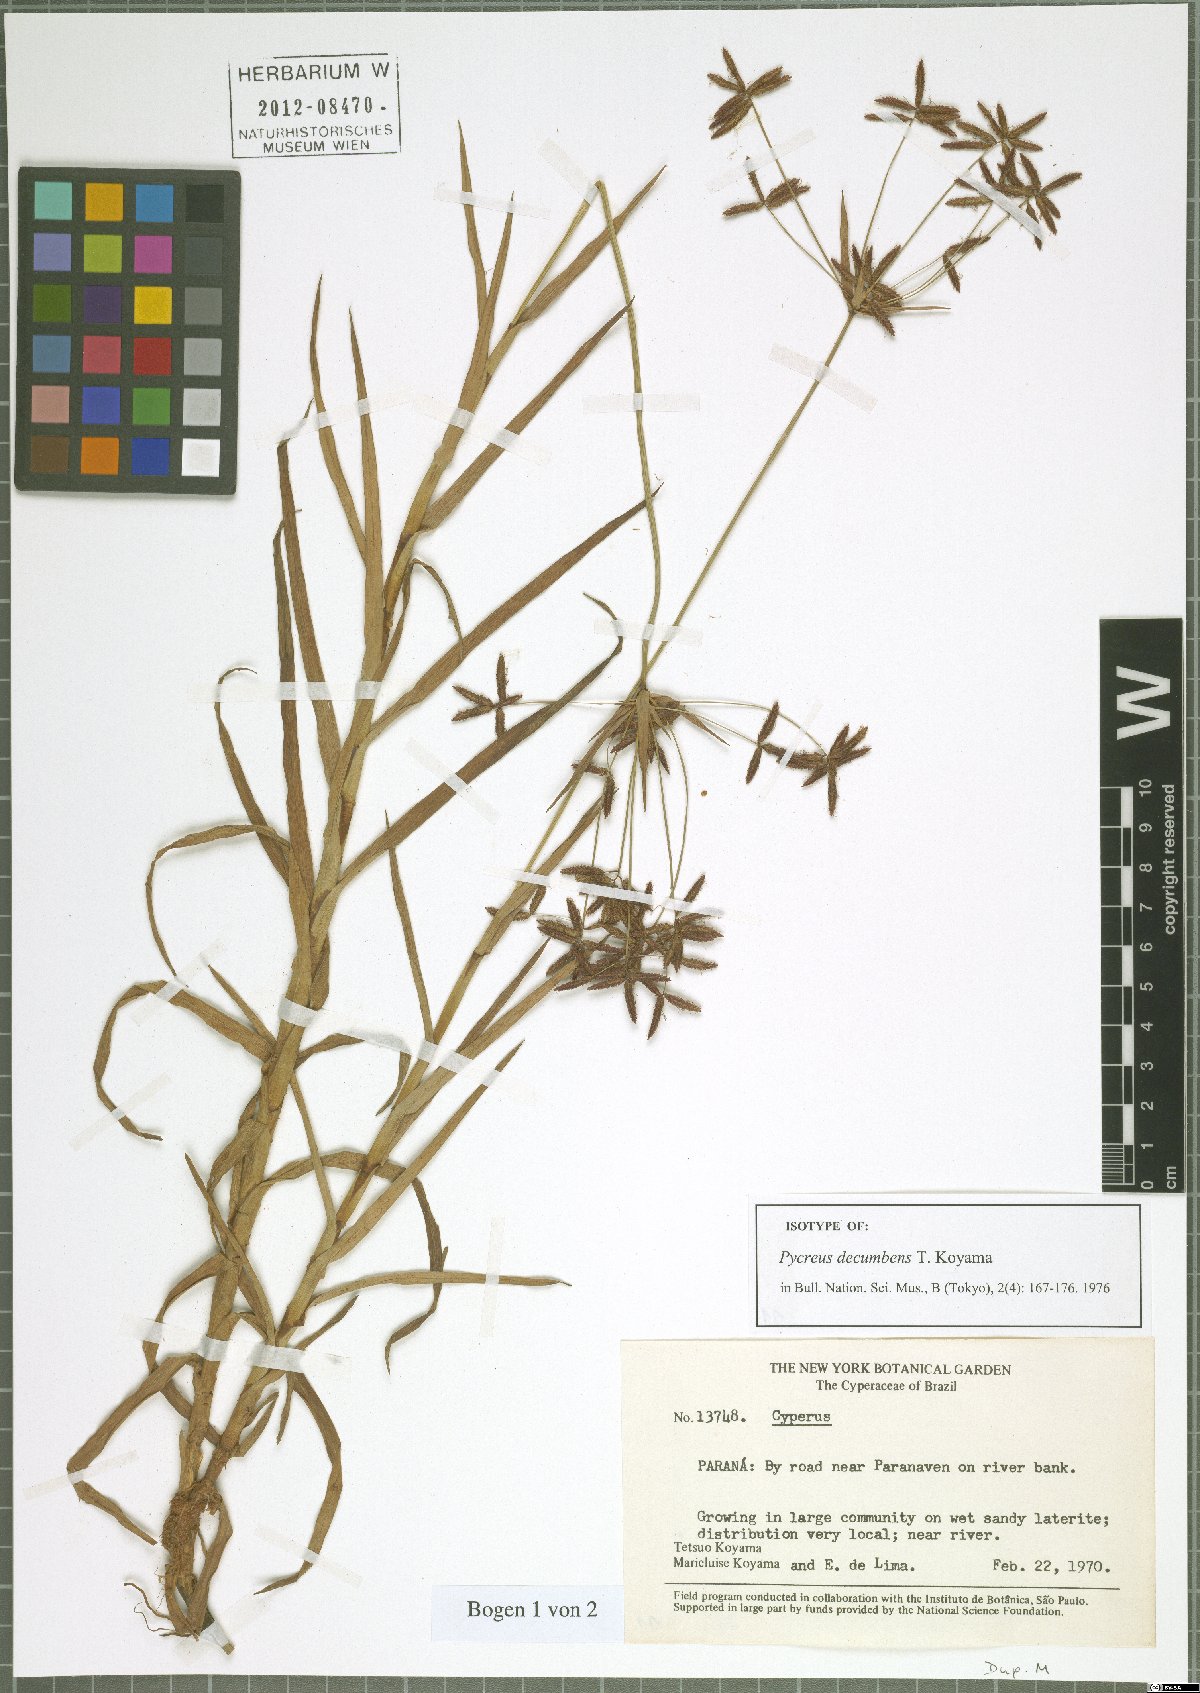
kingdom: Plantae
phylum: Tracheophyta
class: Liliopsida
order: Poales
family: Cyperaceae
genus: Cyperus
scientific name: Cyperus mundii
